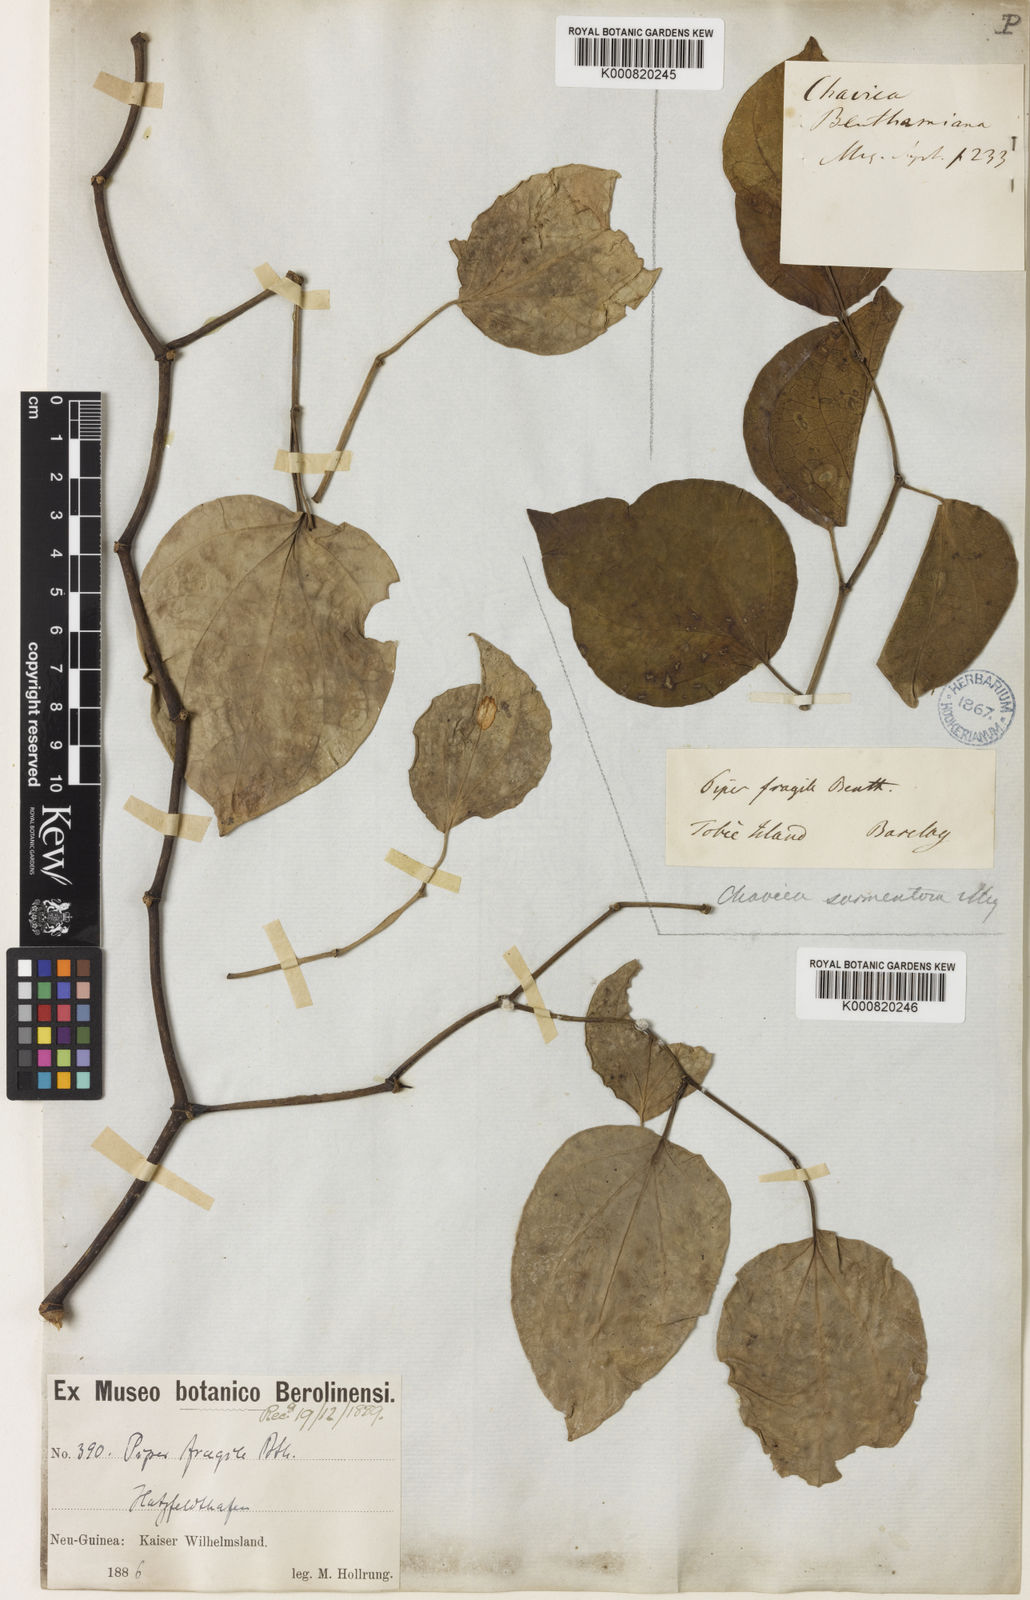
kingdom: Plantae
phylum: Tracheophyta
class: Magnoliopsida
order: Piperales
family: Piperaceae
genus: Piper
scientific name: Piper fragile
